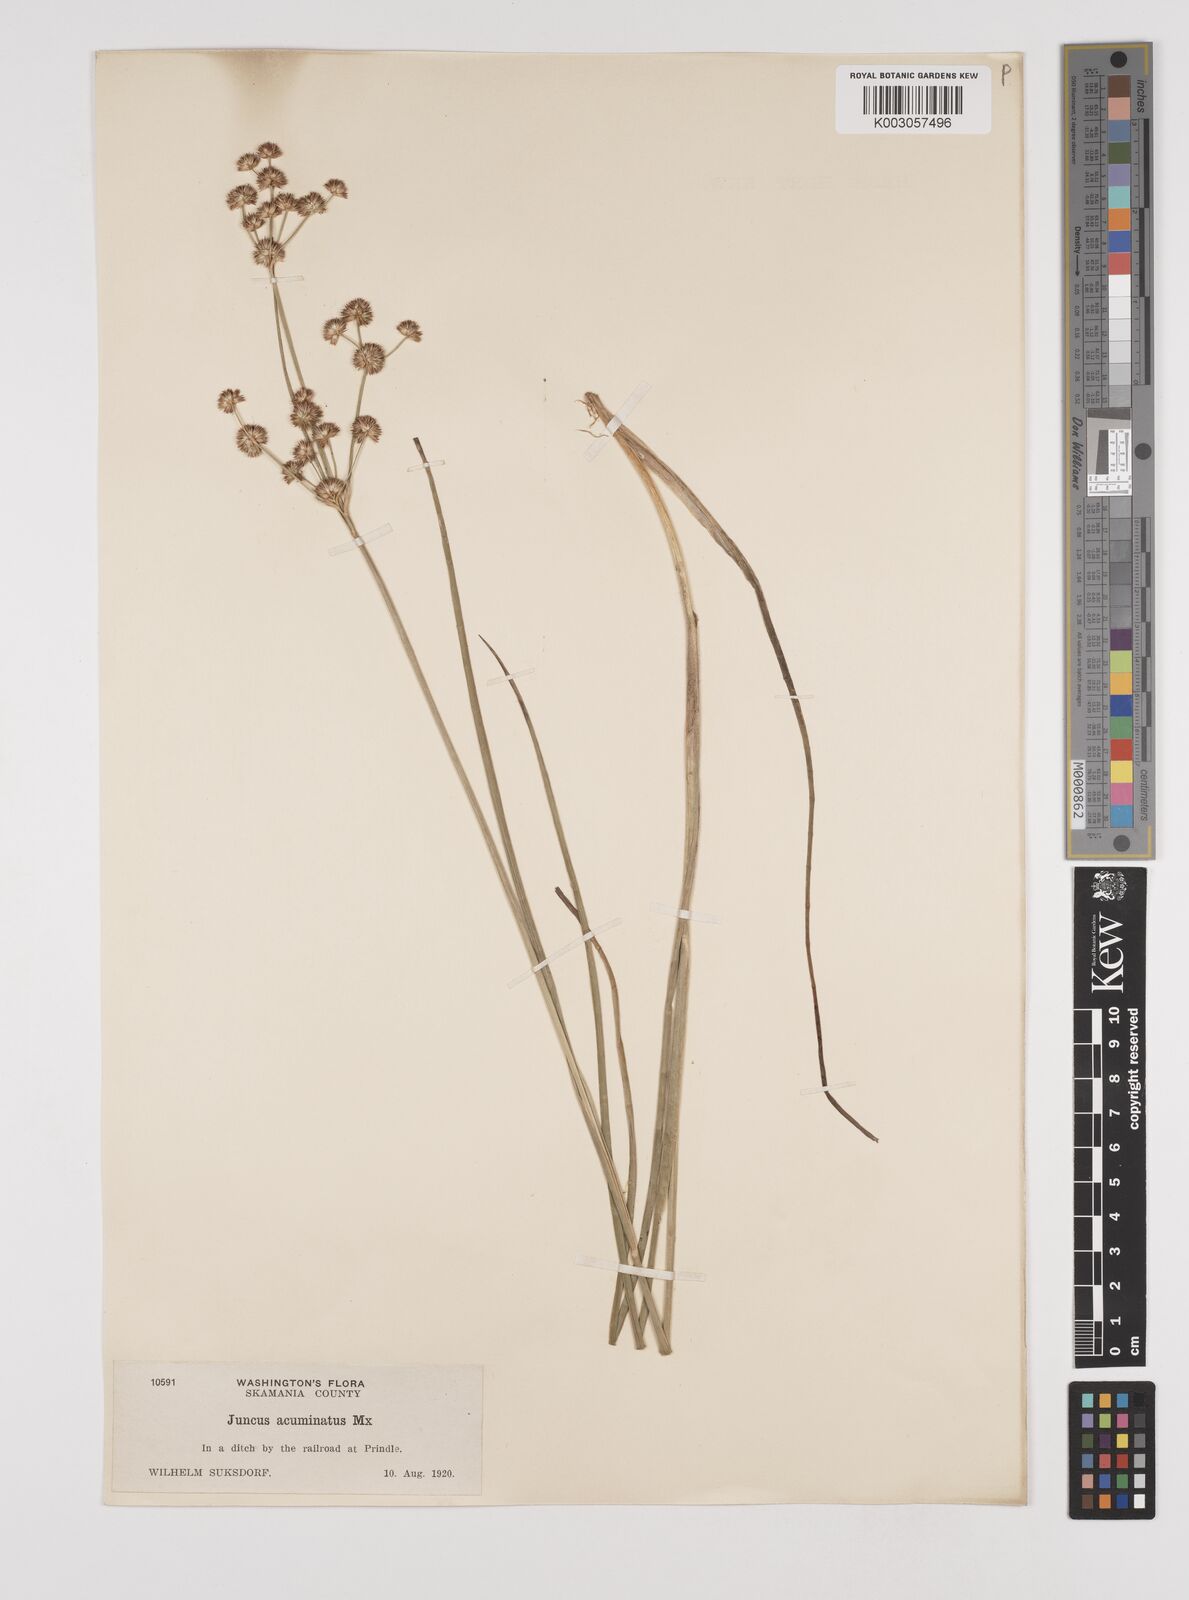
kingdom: Plantae
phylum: Tracheophyta
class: Liliopsida
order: Poales
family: Juncaceae
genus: Juncus
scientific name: Juncus acuminatus
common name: Knotty-leaved rush
